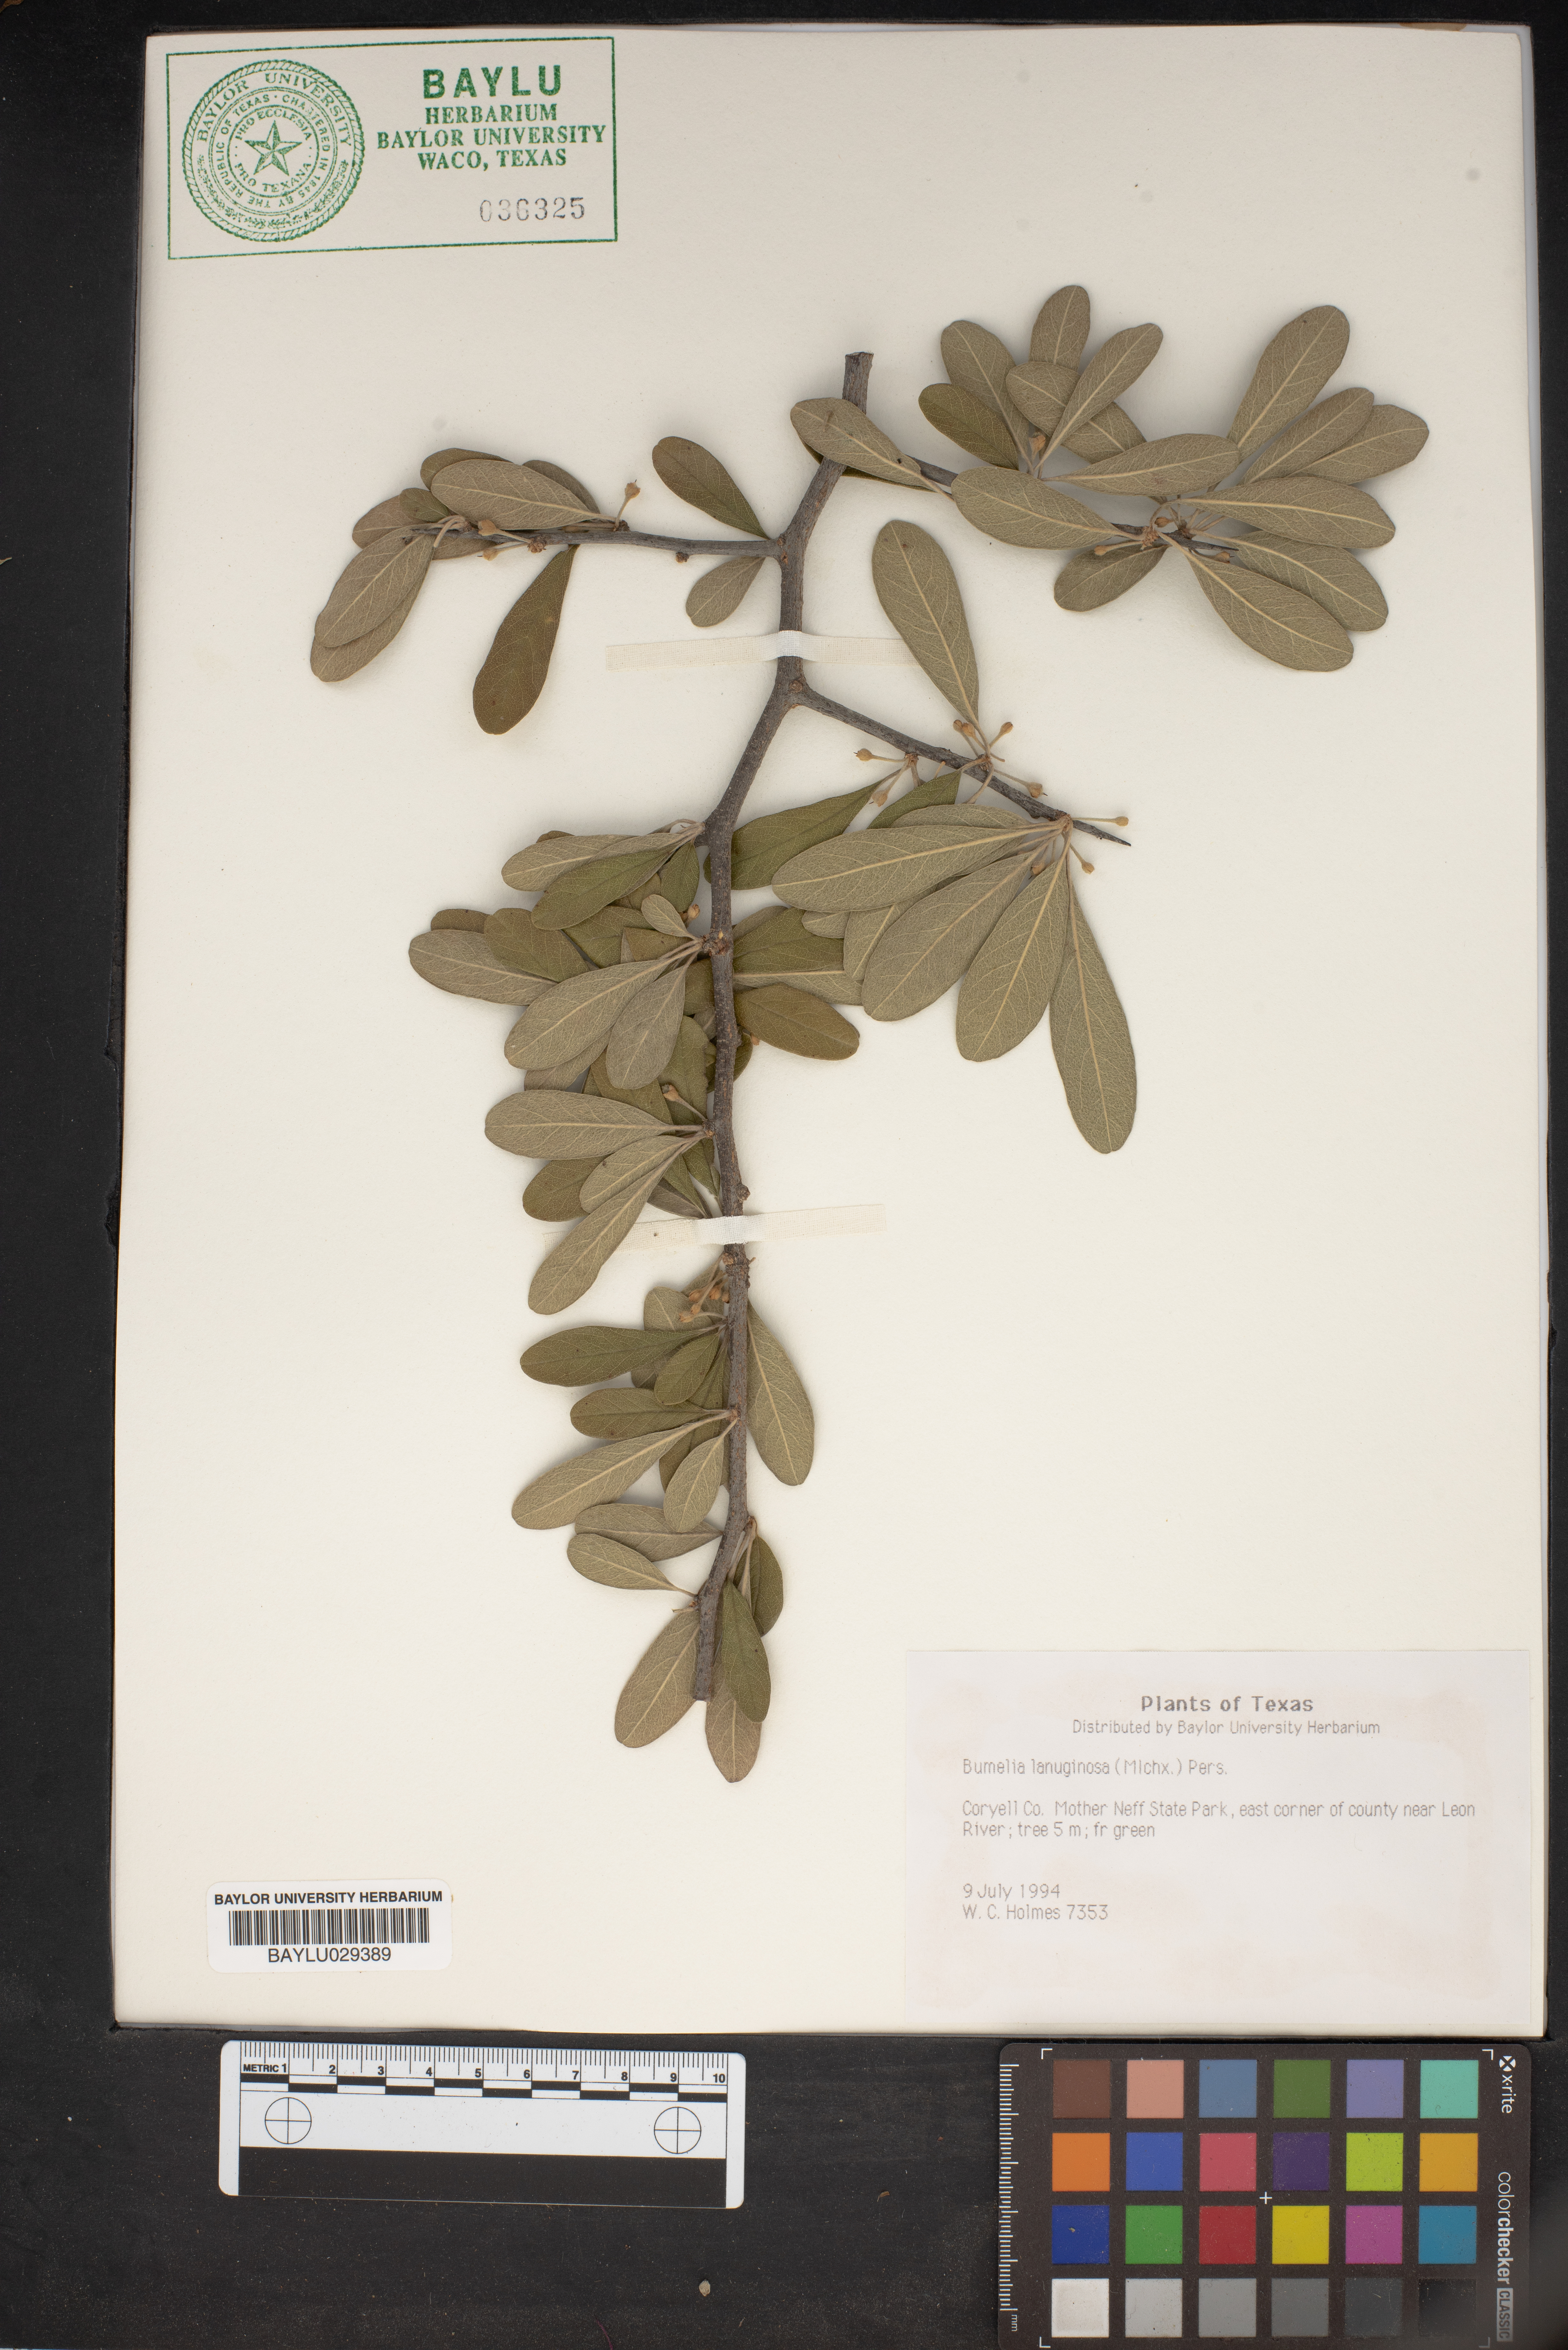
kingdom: Plantae
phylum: Tracheophyta
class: Magnoliopsida
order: Ericales
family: Sapotaceae
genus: Sideroxylon
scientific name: Sideroxylon lanuginosum
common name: Chittamwood
